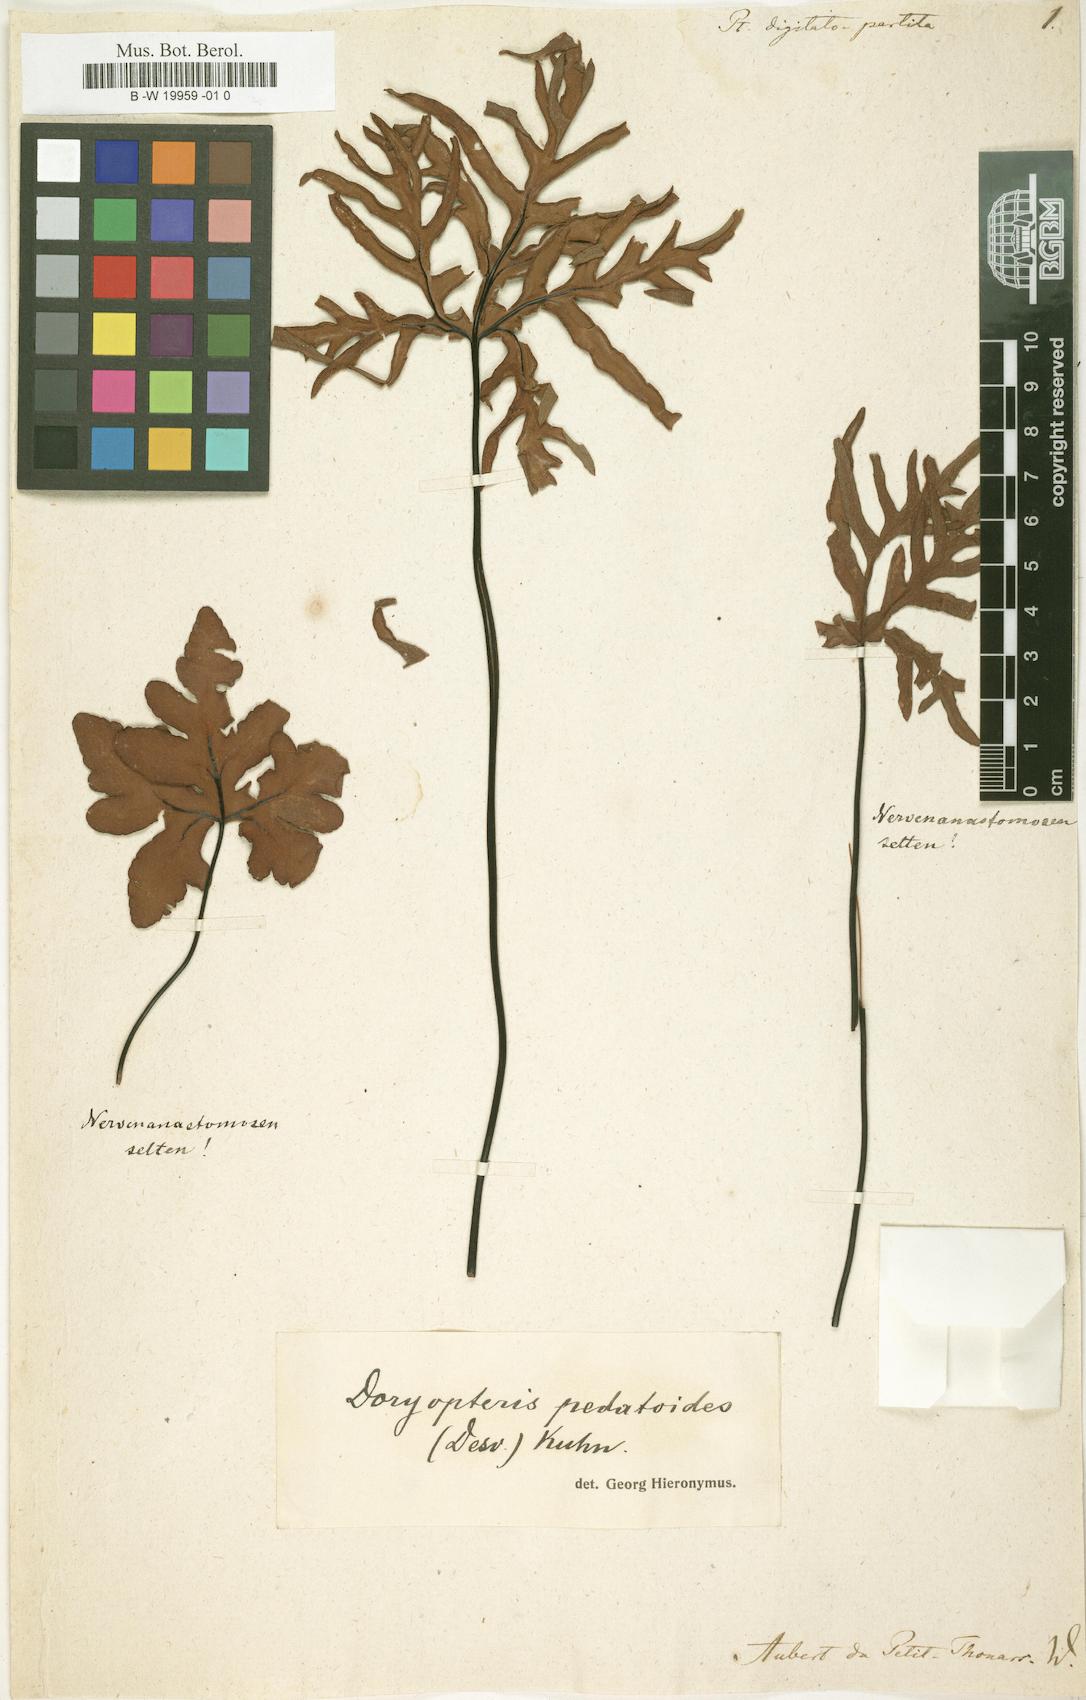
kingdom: Plantae
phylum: Tracheophyta
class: Polypodiopsida
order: Polypodiales
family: Polypodiaceae
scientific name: Polypodiaceae
